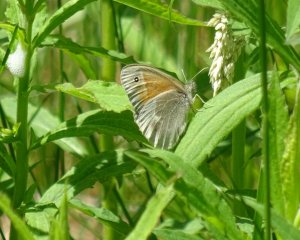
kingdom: Animalia
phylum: Arthropoda
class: Insecta
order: Lepidoptera
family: Nymphalidae
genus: Coenonympha
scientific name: Coenonympha tullia
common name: Large Heath
